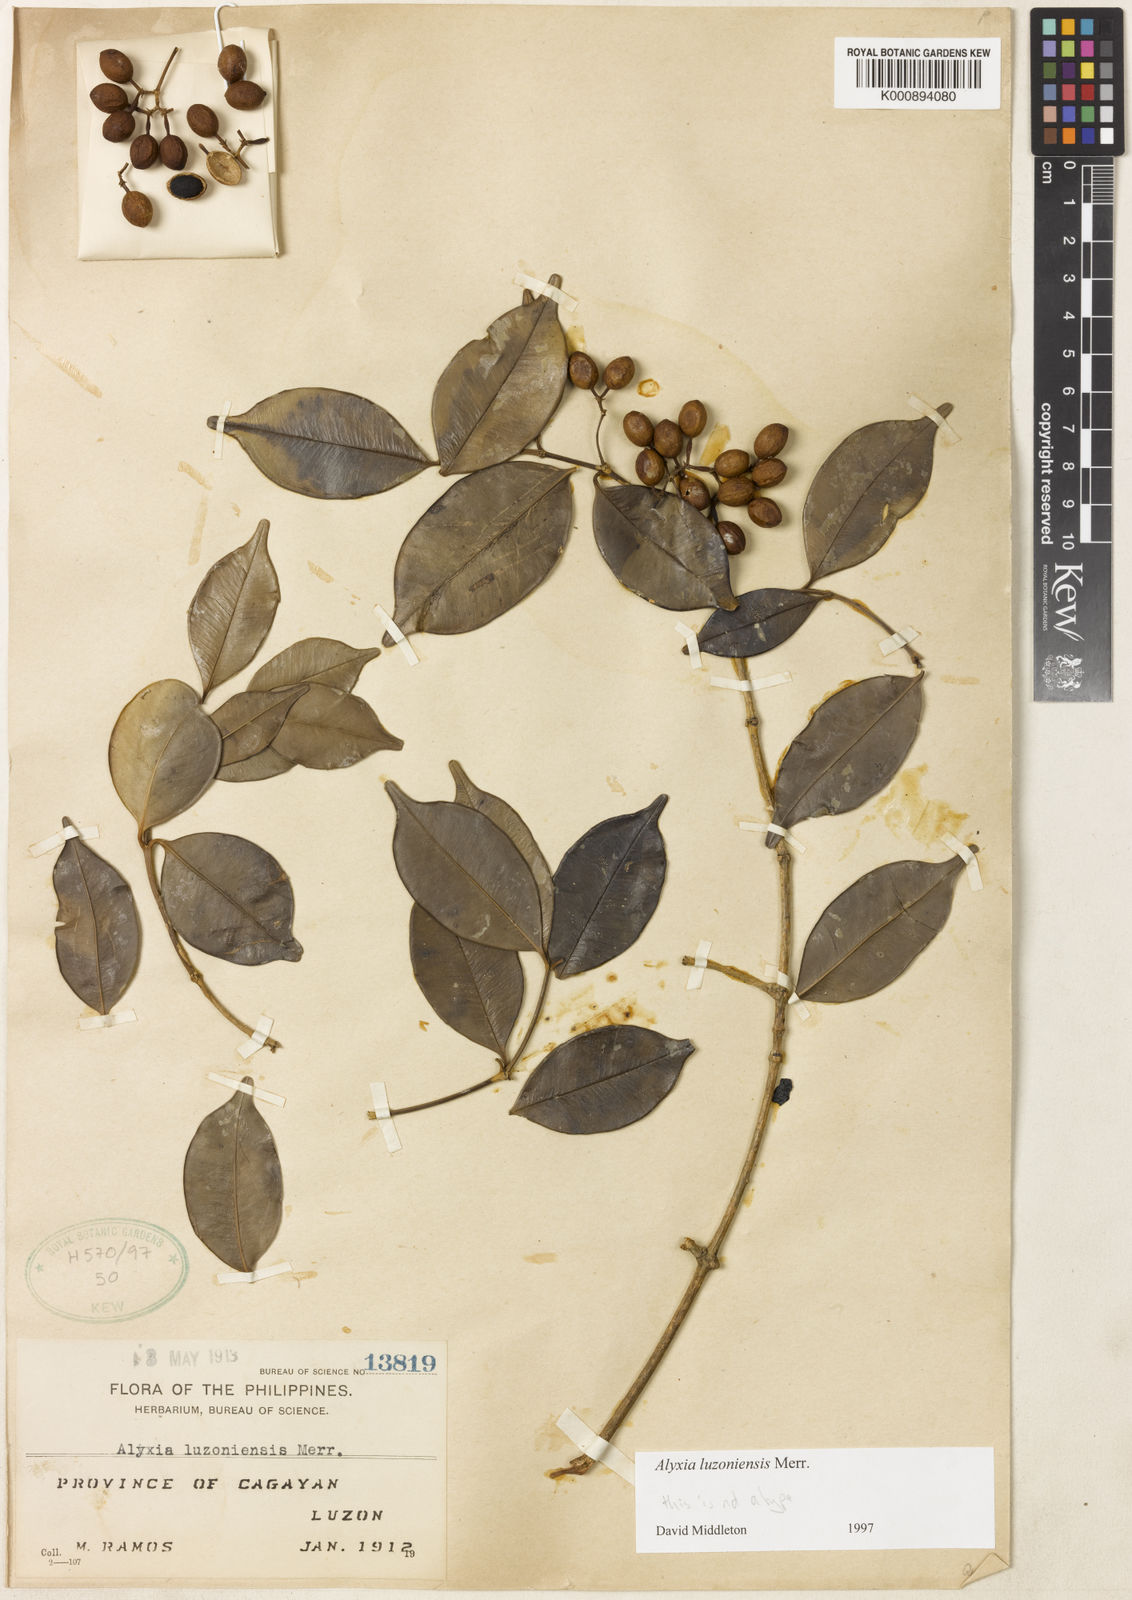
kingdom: Plantae
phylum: Tracheophyta
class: Magnoliopsida
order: Gentianales
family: Apocynaceae
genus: Alyxia
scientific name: Alyxia luzoniensis
